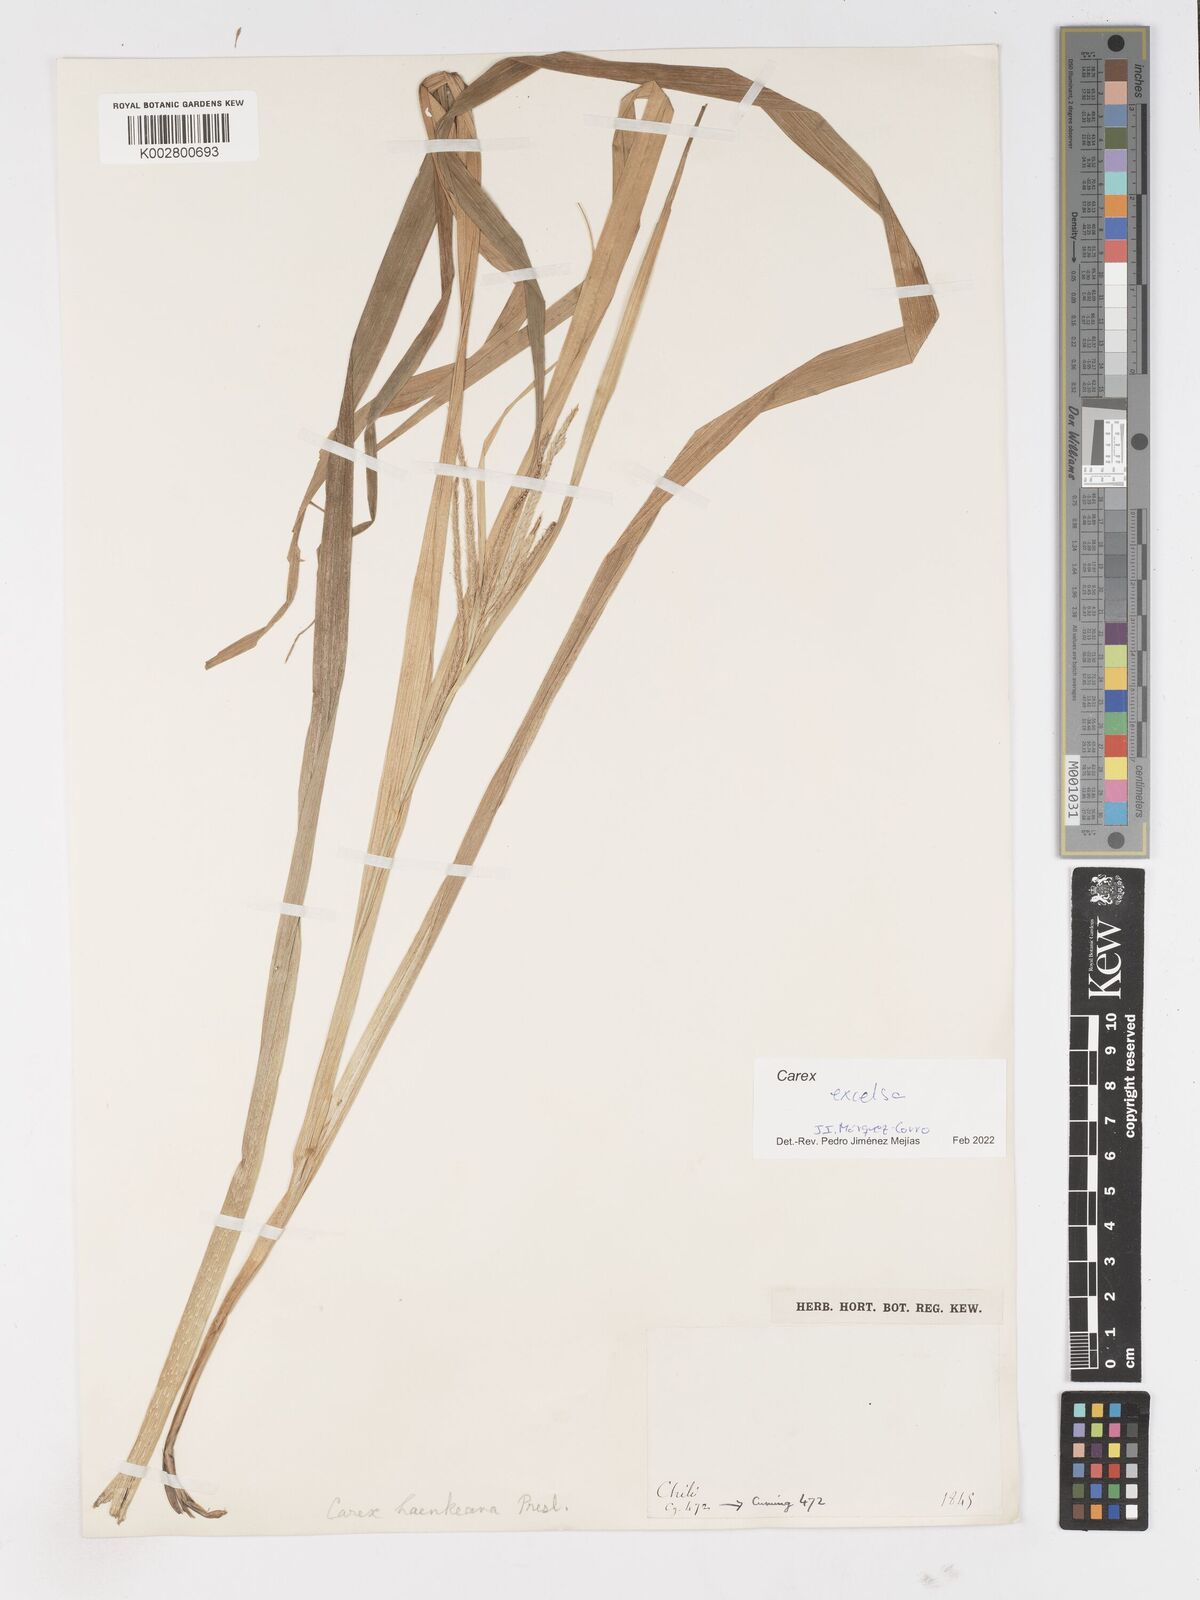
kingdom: Plantae
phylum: Tracheophyta
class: Liliopsida
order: Poales
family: Cyperaceae
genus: Carex
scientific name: Carex excelsa
